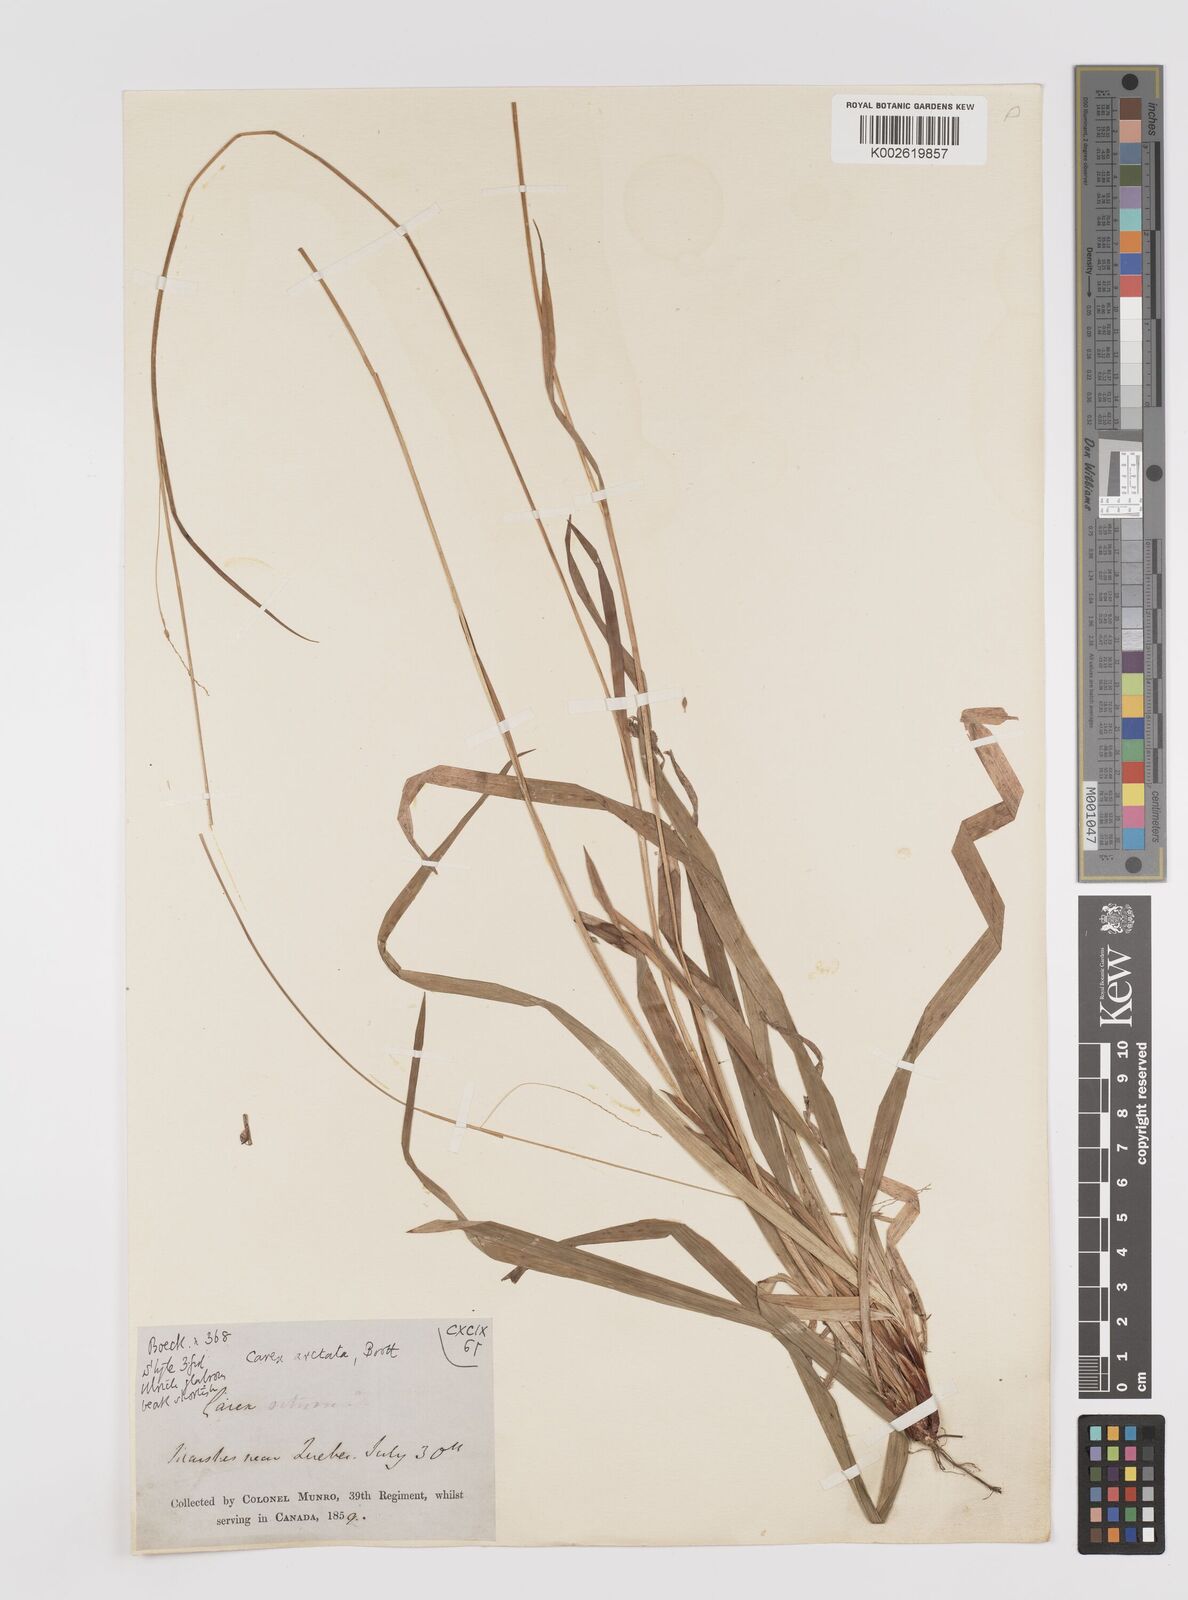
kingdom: Plantae
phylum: Tracheophyta
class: Liliopsida
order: Poales
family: Cyperaceae
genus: Carex
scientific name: Carex arctata
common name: Black sedge
